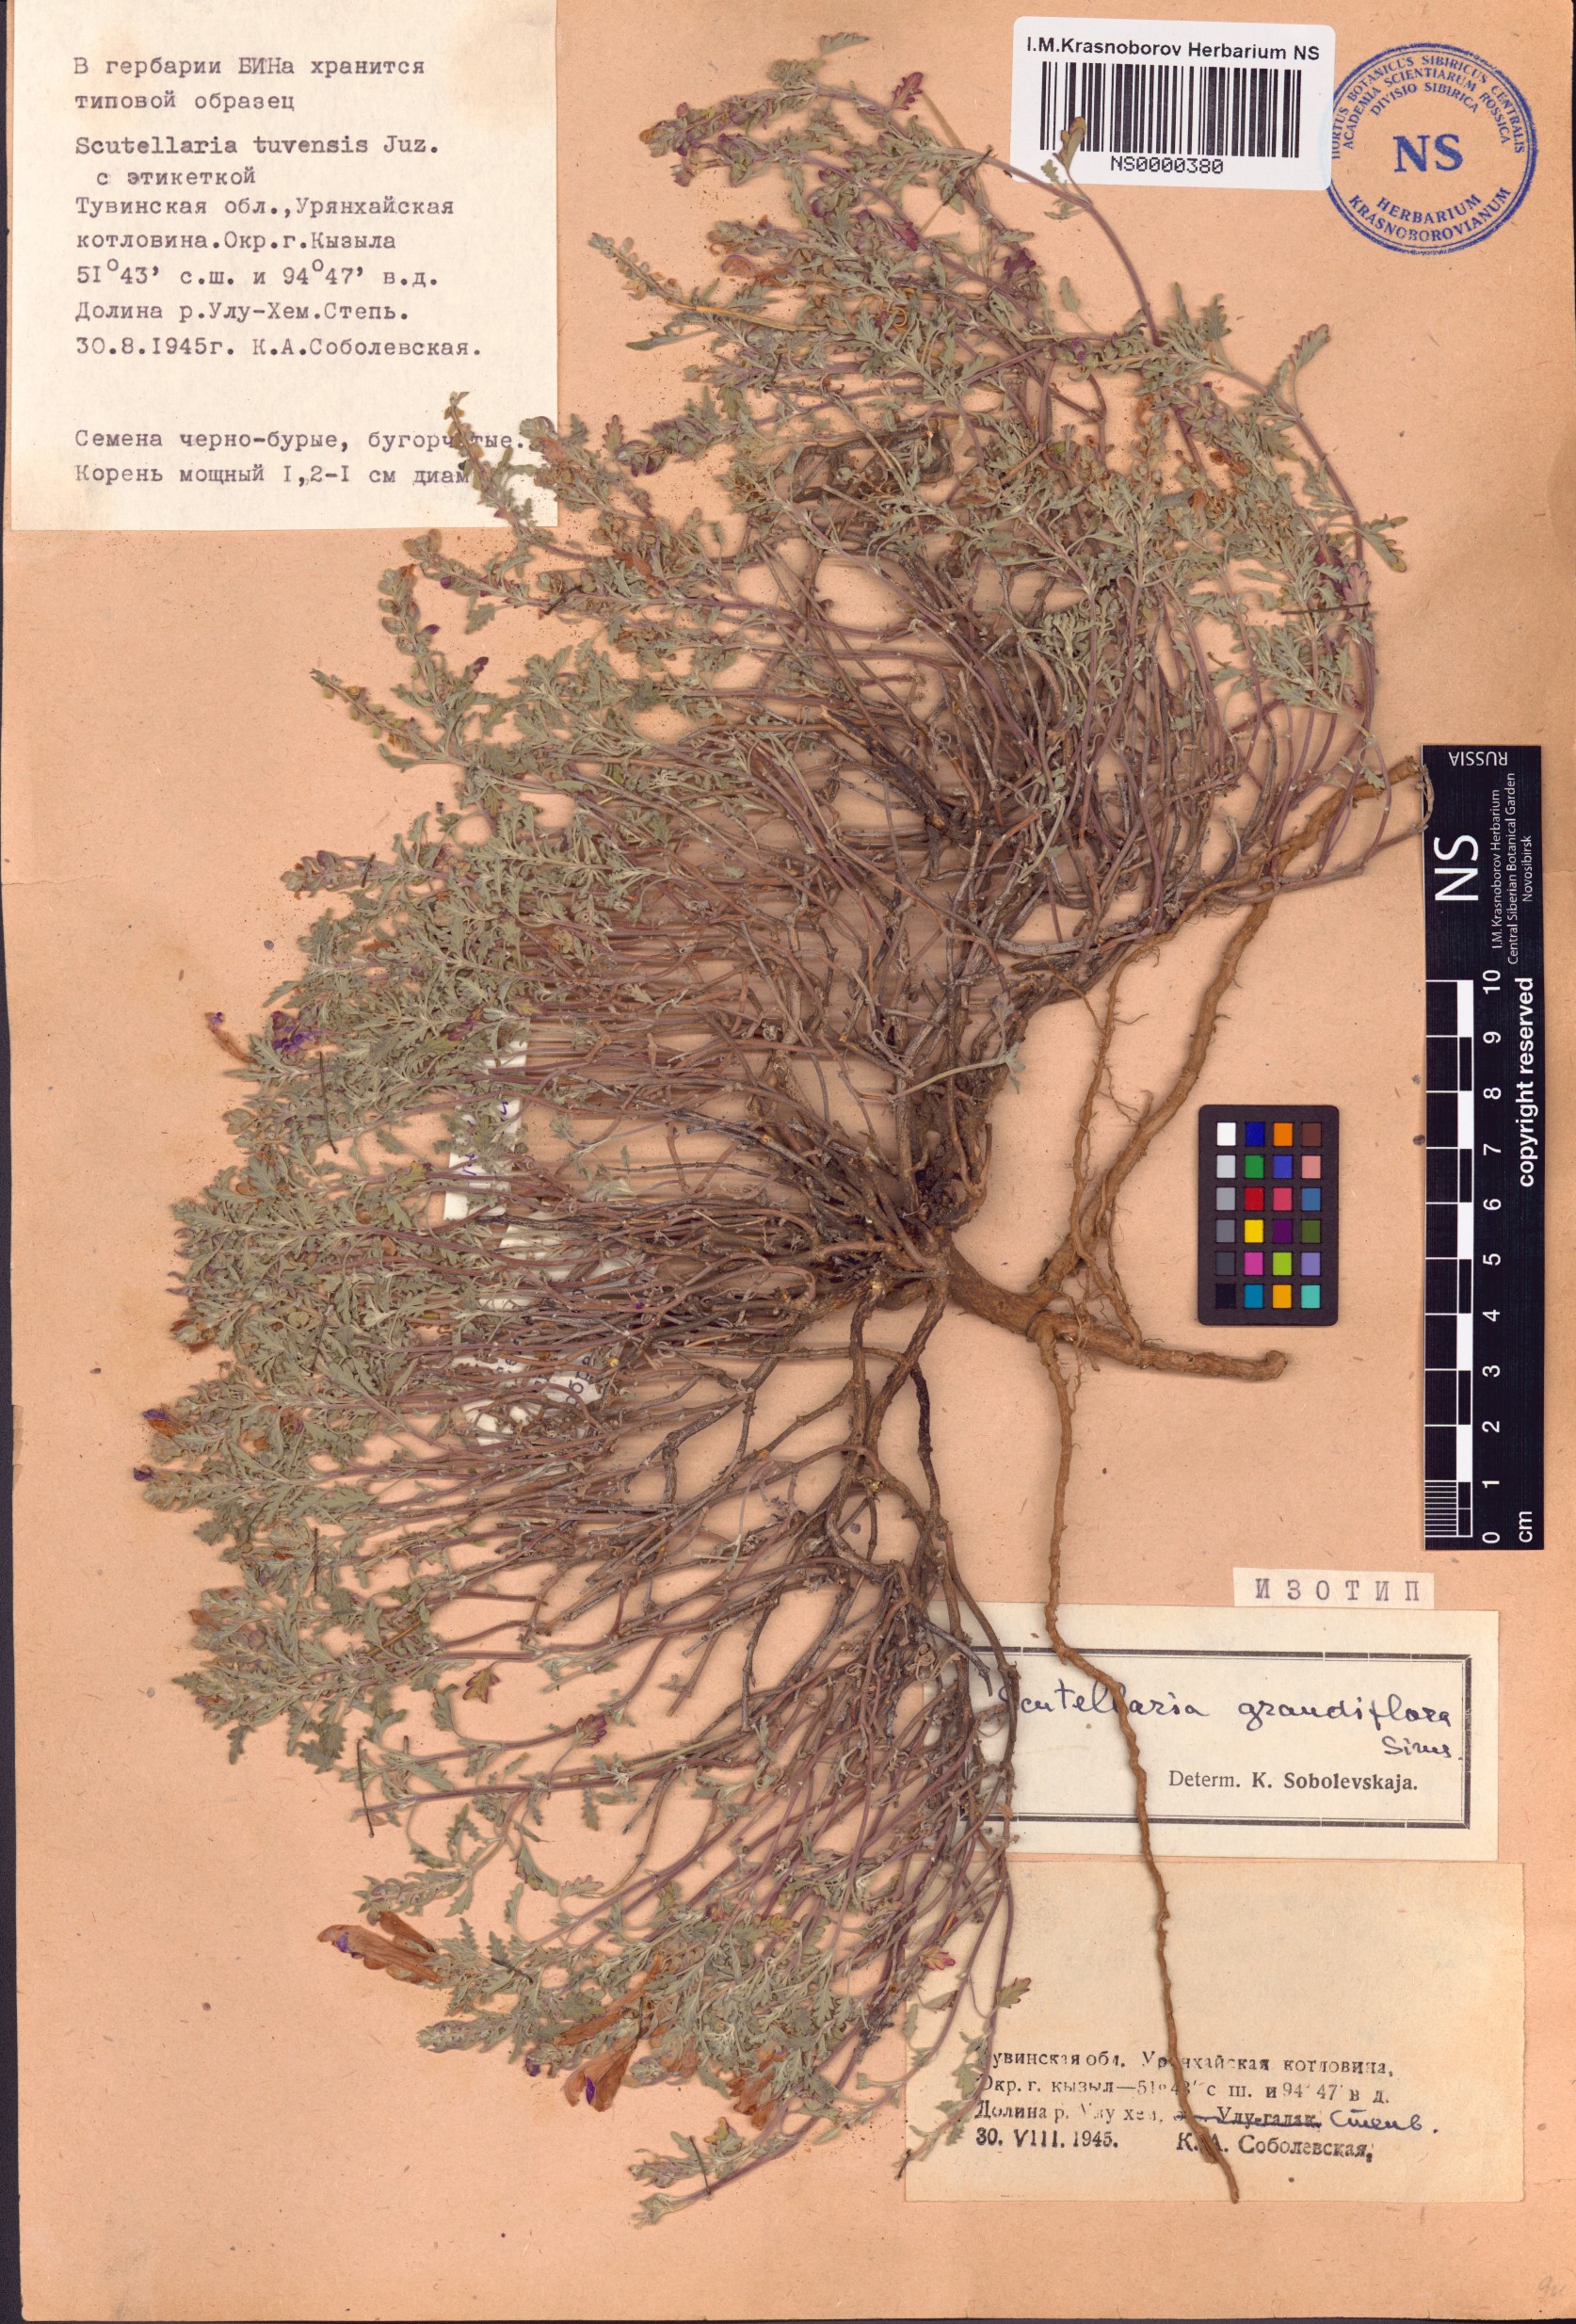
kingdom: Plantae
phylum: Tracheophyta
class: Magnoliopsida
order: Lamiales
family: Lamiaceae
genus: Scutellaria
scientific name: Scutellaria grandiflora
